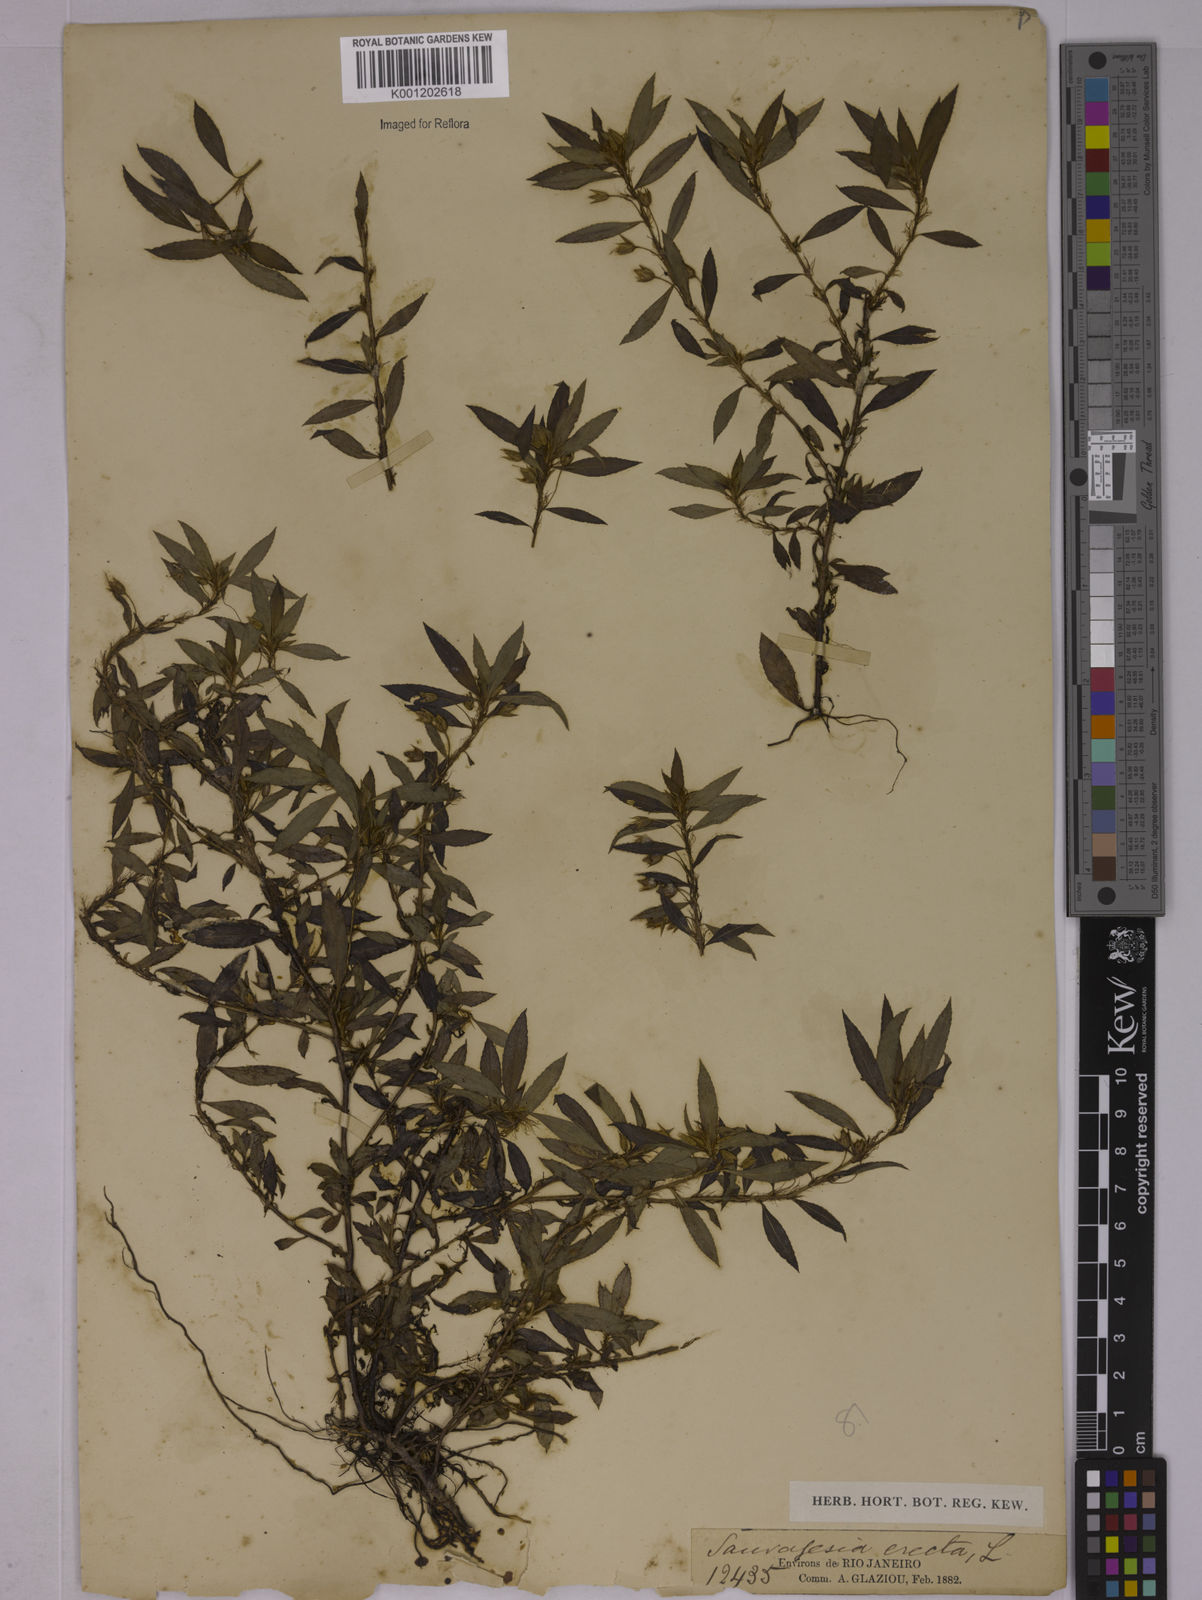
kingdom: Plantae
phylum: Tracheophyta
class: Magnoliopsida
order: Malpighiales
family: Ochnaceae
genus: Sauvagesia
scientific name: Sauvagesia erecta
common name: Creole tea
